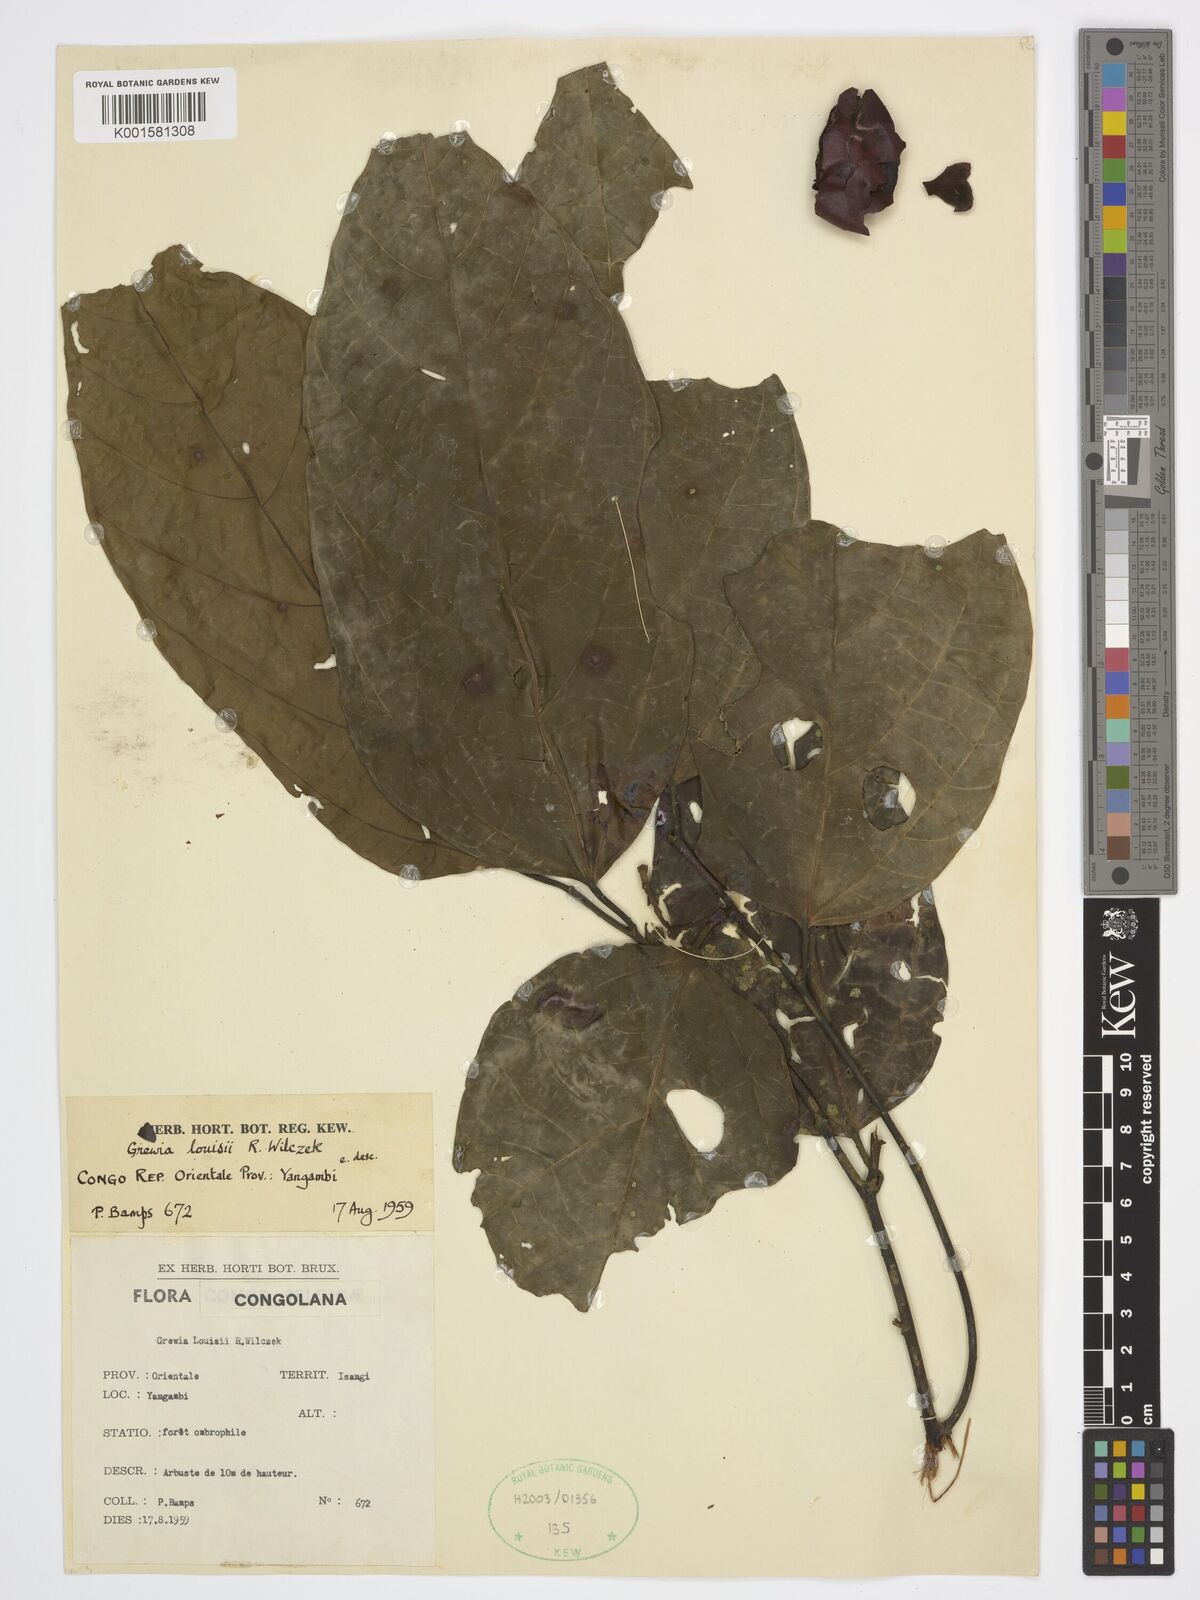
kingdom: Plantae
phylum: Tracheophyta
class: Magnoliopsida
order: Malvales
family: Malvaceae
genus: Grewia
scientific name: Grewia louisii
